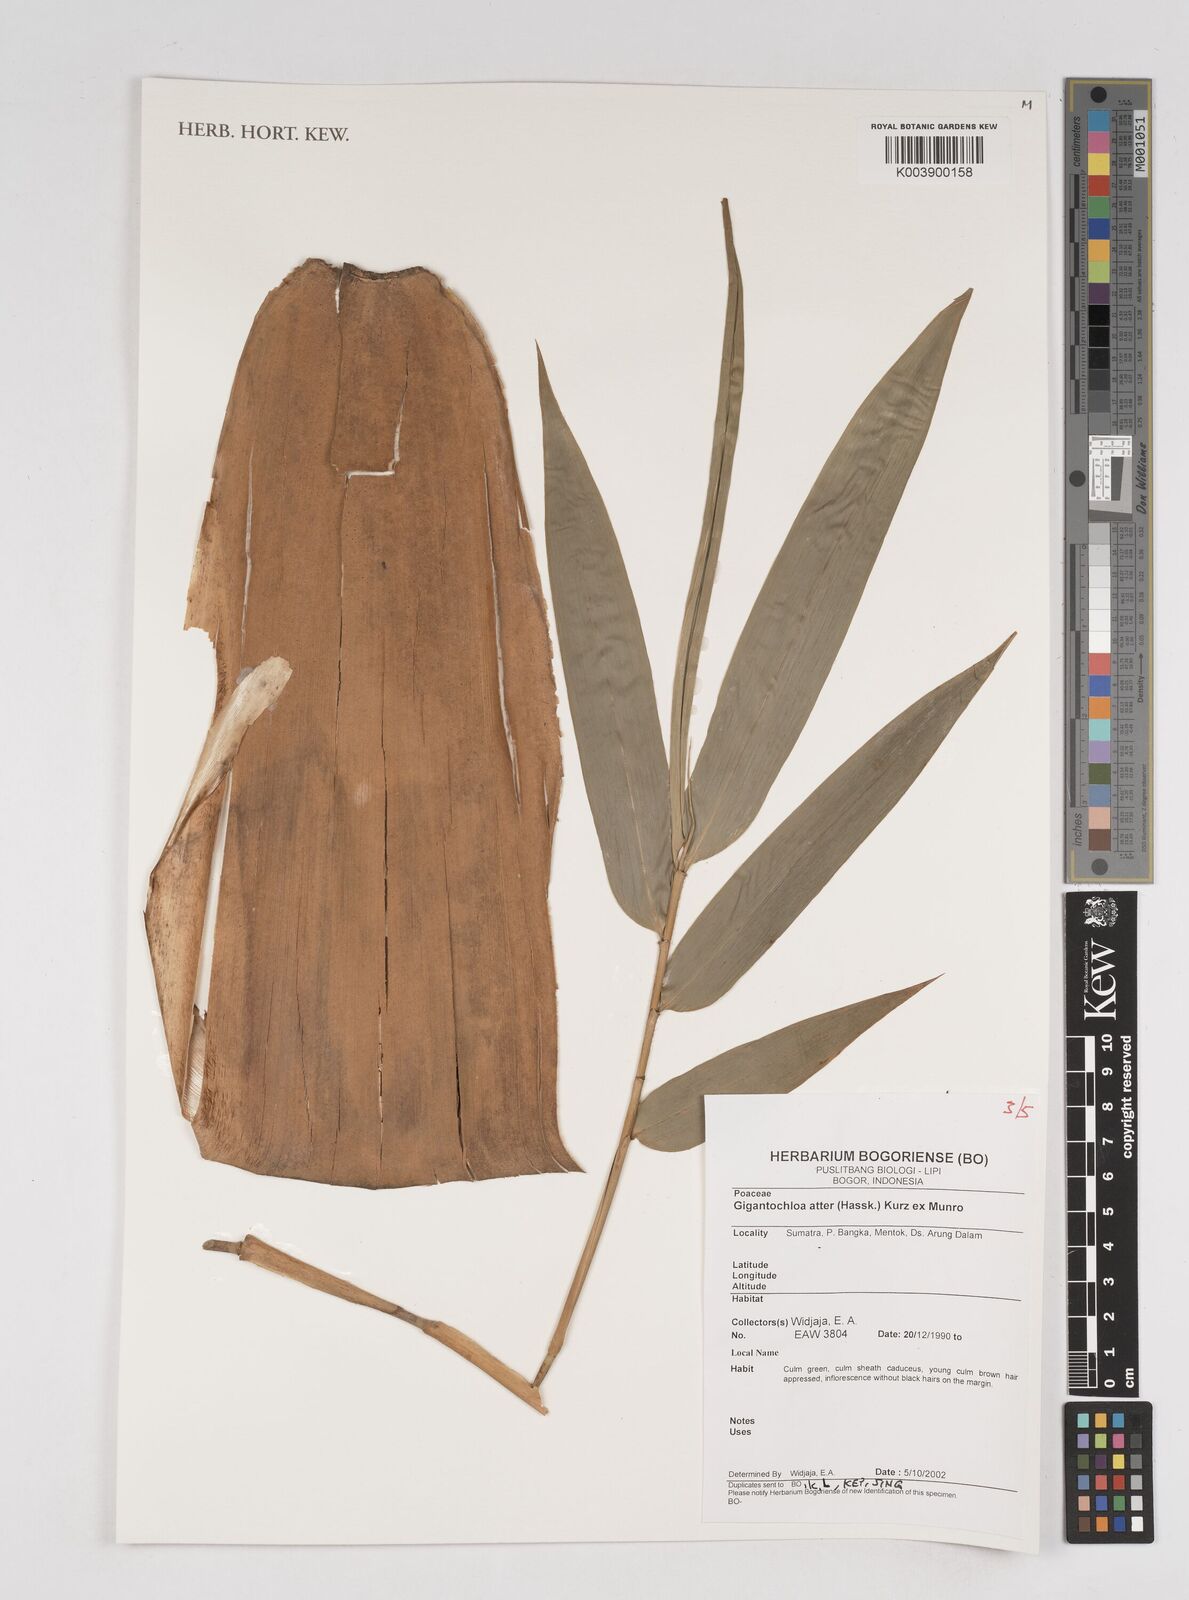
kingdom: Plantae
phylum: Tracheophyta
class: Liliopsida
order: Poales
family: Poaceae
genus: Gigantochloa
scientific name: Gigantochloa atter
